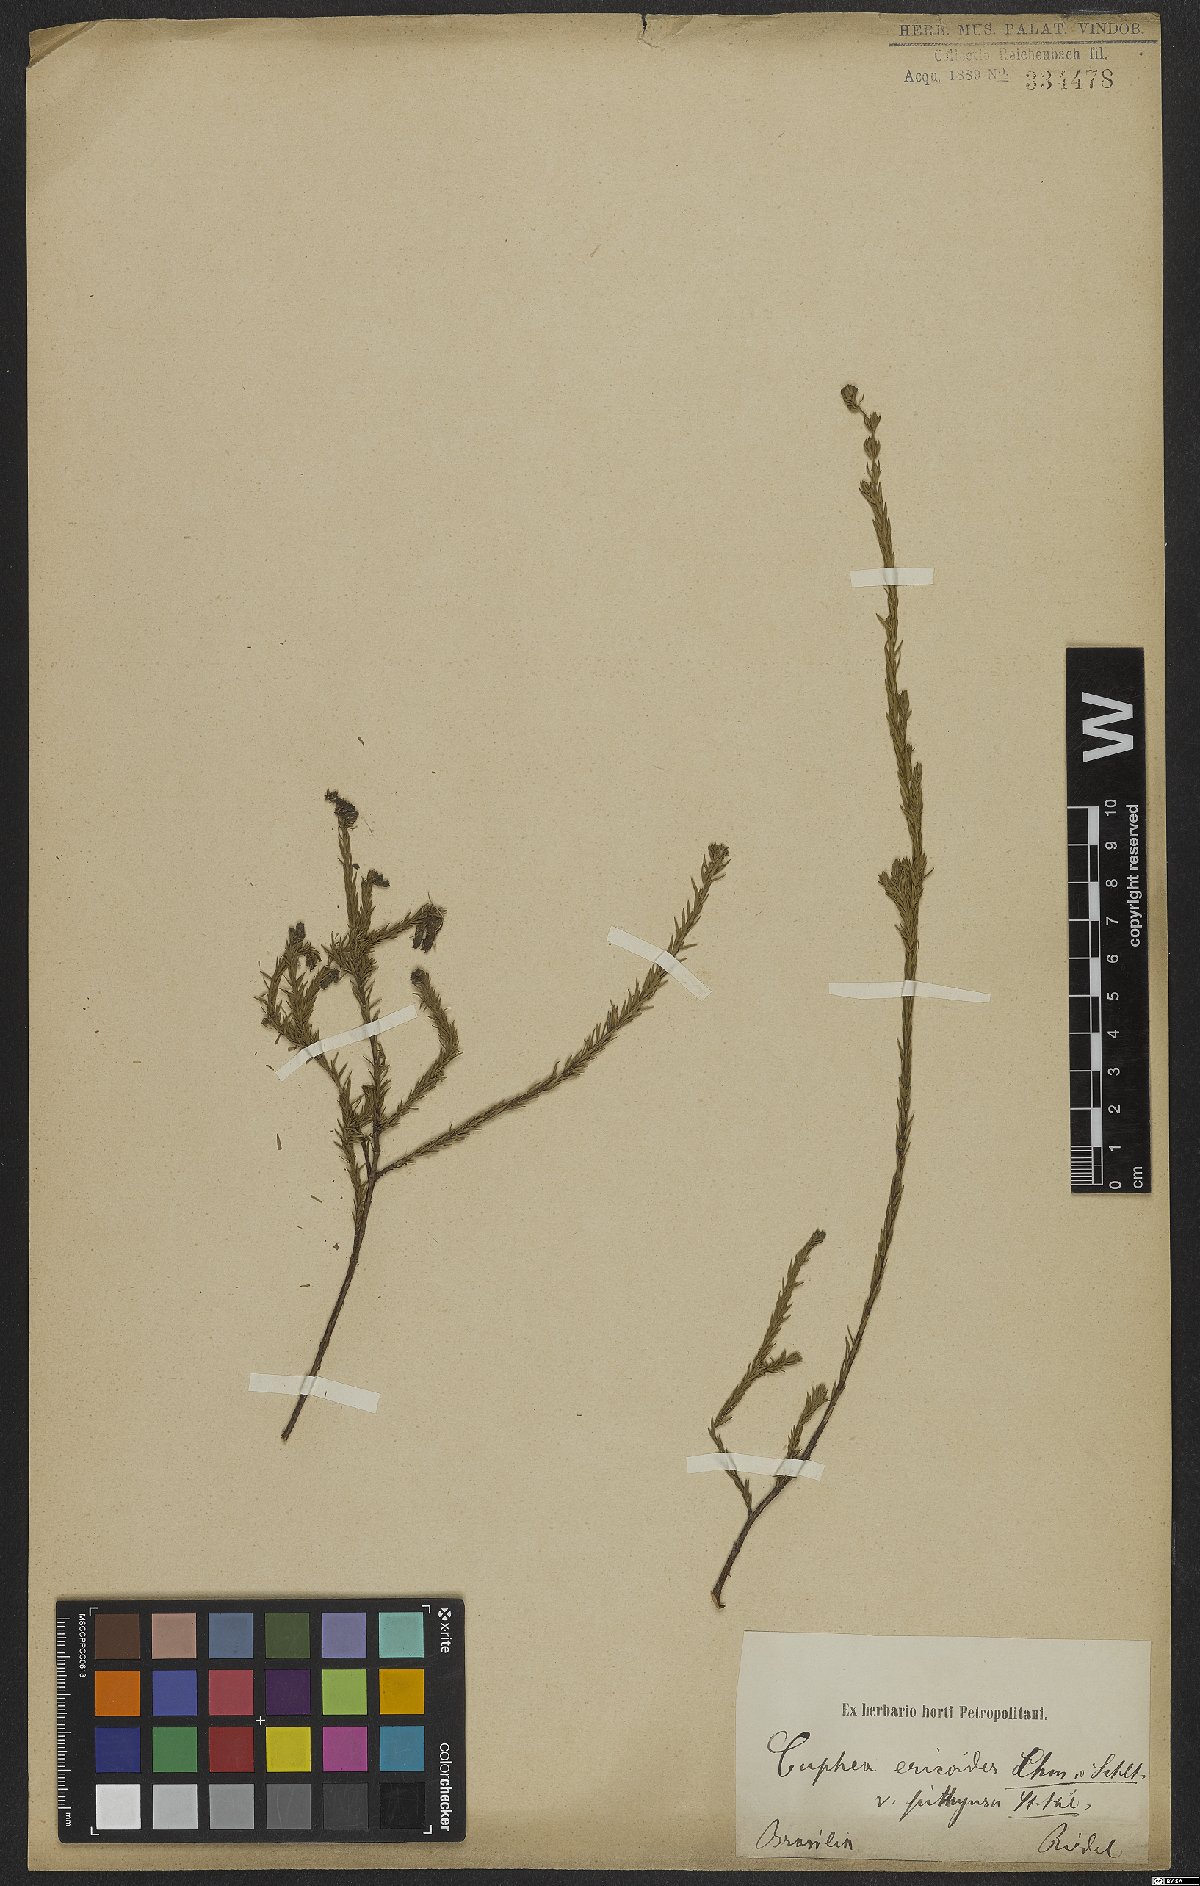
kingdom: Plantae
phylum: Tracheophyta
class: Magnoliopsida
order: Myrtales
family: Lythraceae
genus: Cuphea
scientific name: Cuphea ericoides
